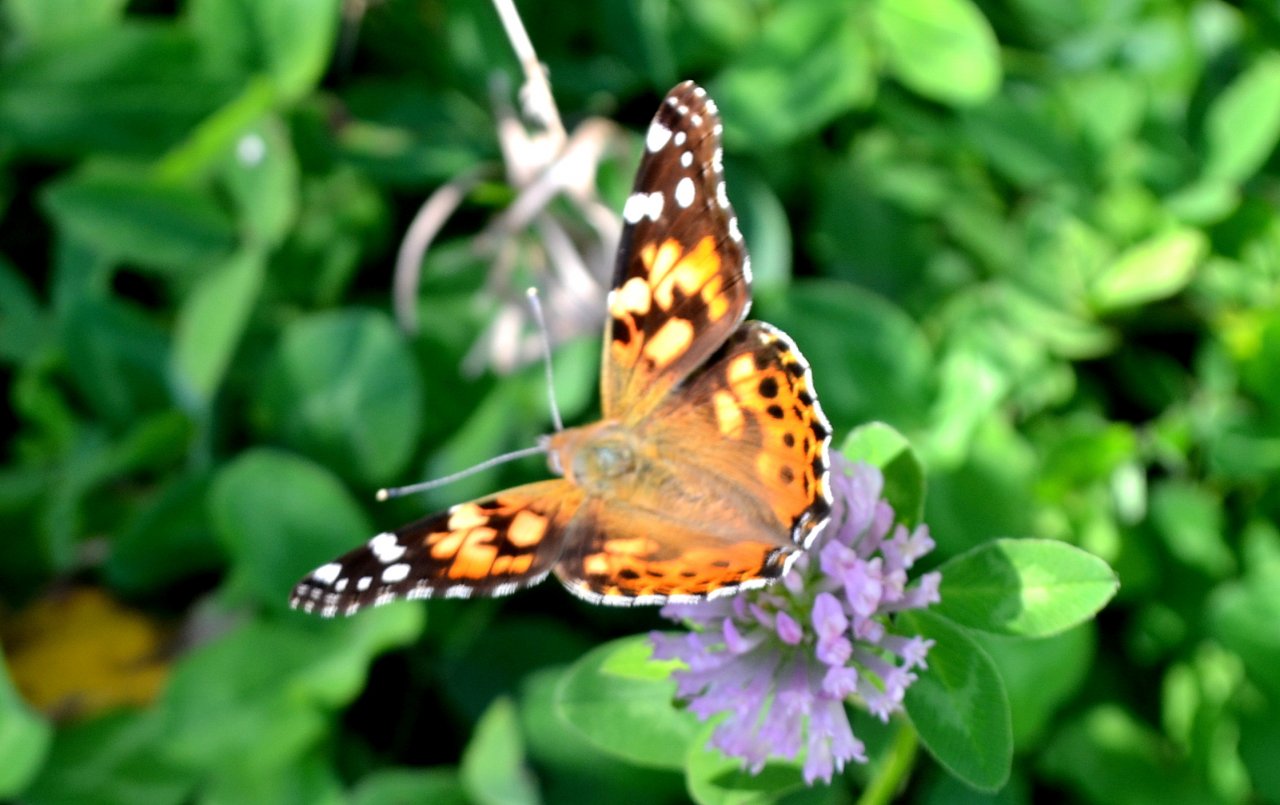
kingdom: Animalia
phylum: Arthropoda
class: Insecta
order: Lepidoptera
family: Nymphalidae
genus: Vanessa
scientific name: Vanessa cardui
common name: Painted Lady
